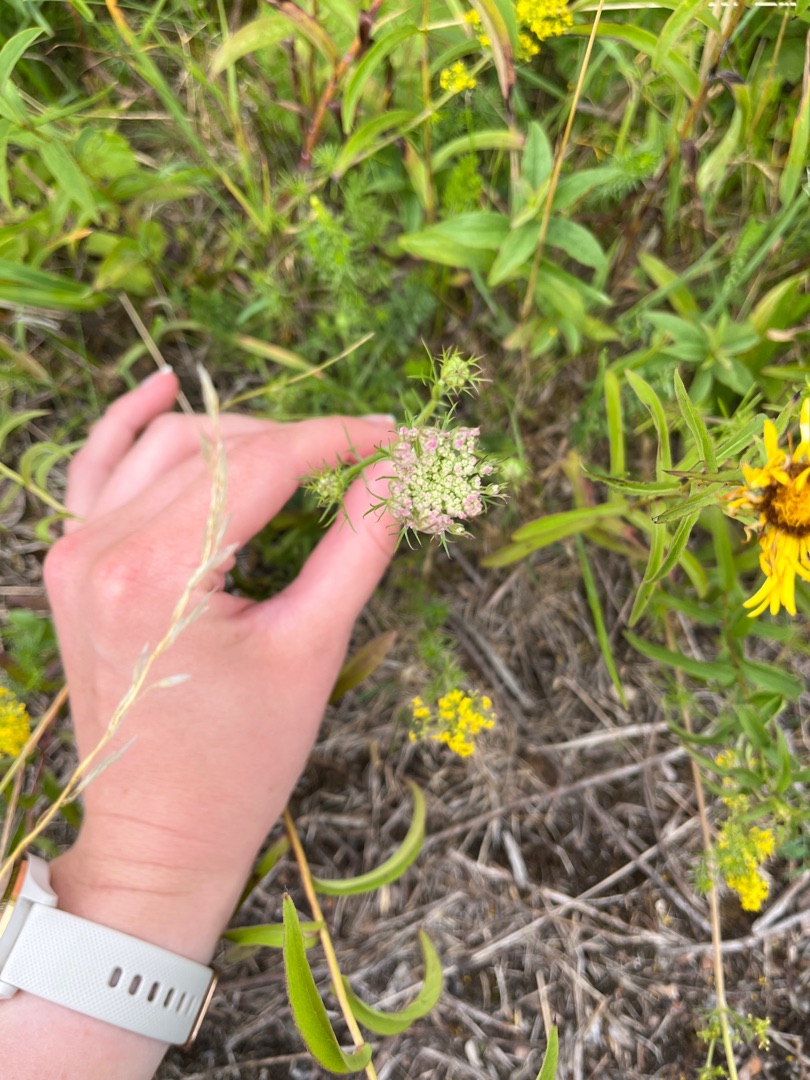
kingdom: Plantae
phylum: Tracheophyta
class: Magnoliopsida
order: Apiales
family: Apiaceae
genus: Daucus
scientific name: Daucus carota
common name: Gulerod
